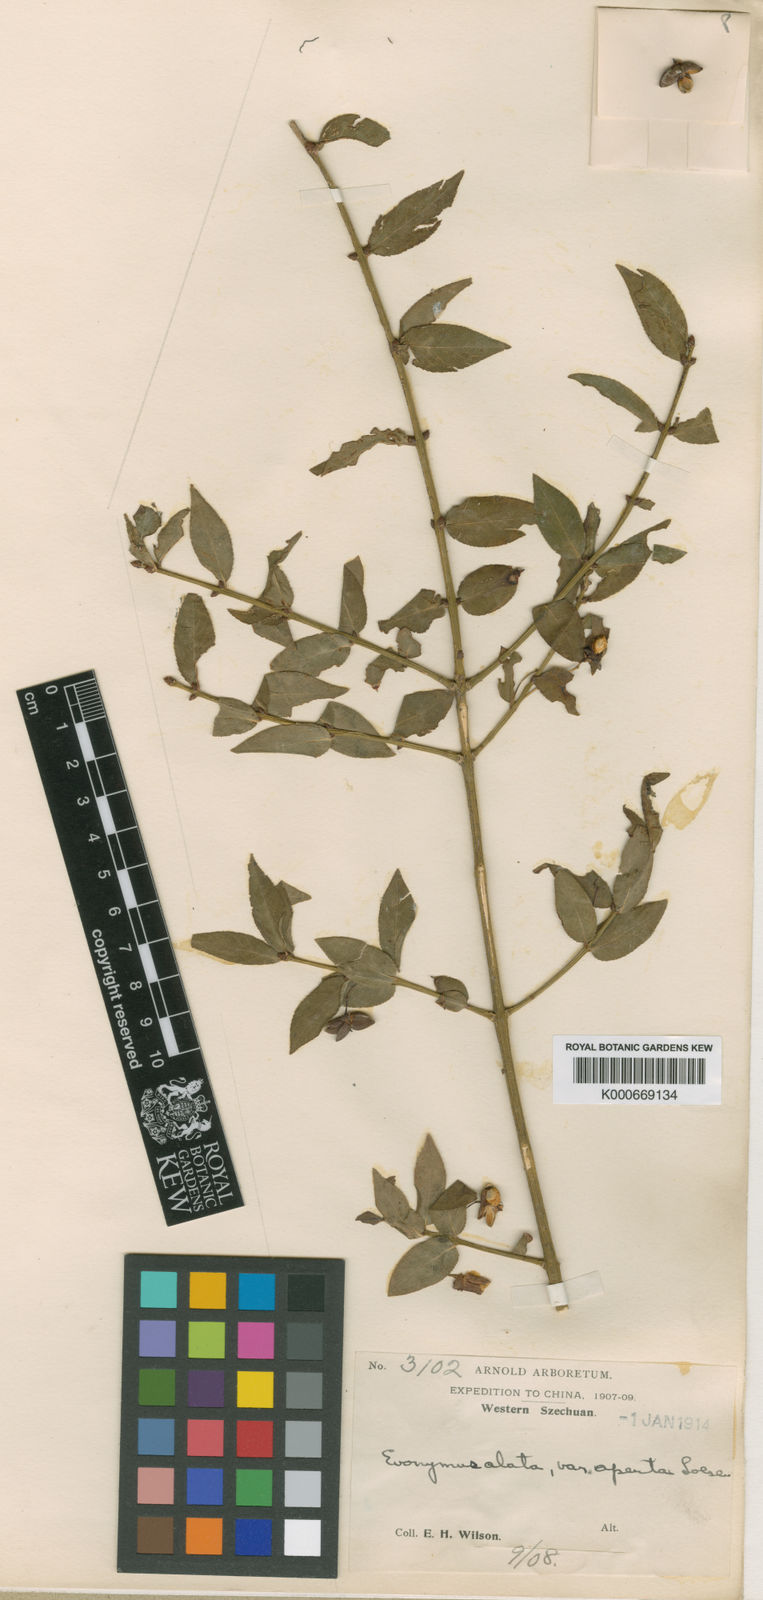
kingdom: Plantae
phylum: Tracheophyta
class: Magnoliopsida
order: Celastrales
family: Celastraceae
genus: Euonymus
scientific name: Euonymus alatus
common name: Winged euonymus
